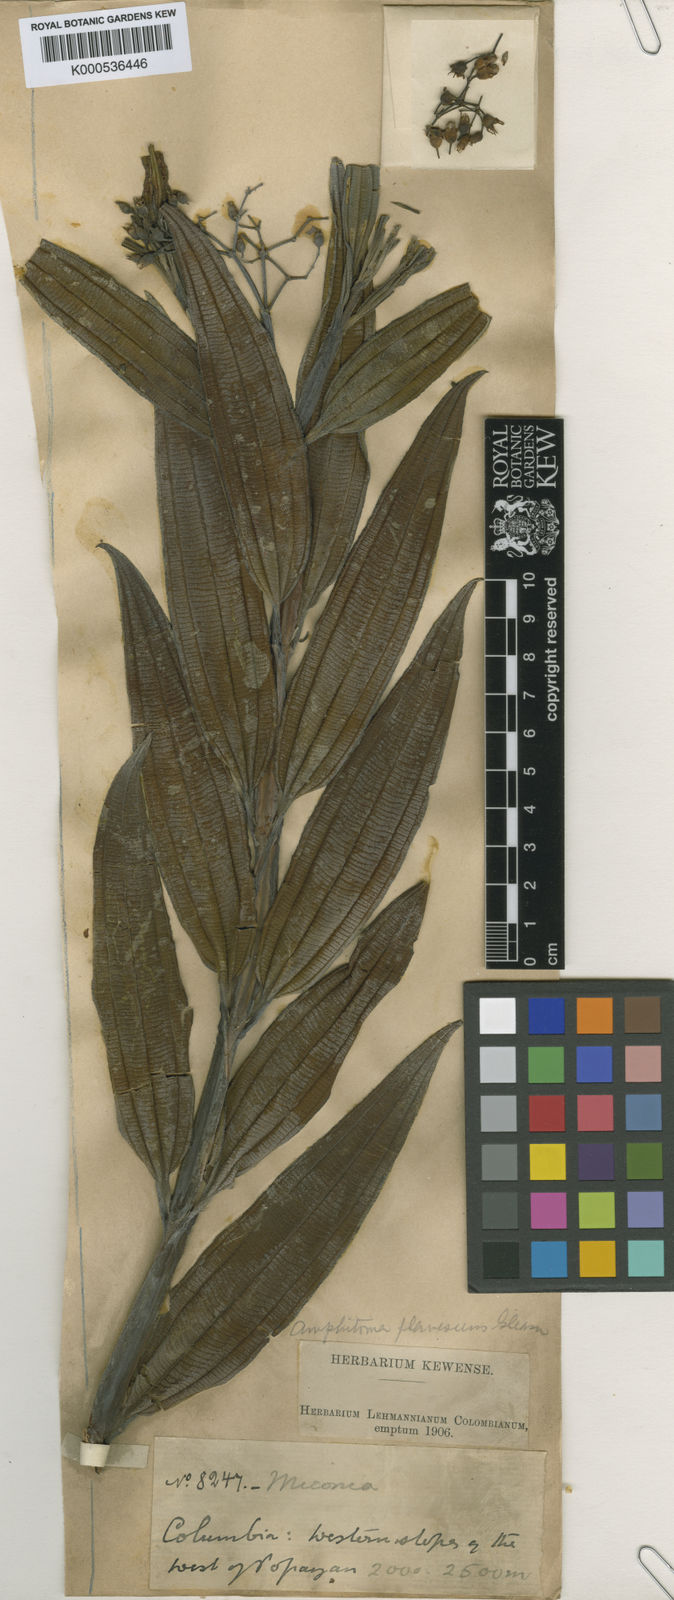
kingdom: Plantae
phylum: Tracheophyta
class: Magnoliopsida
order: Myrtales
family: Melastomataceae
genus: Miconia
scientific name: Miconia micayana
